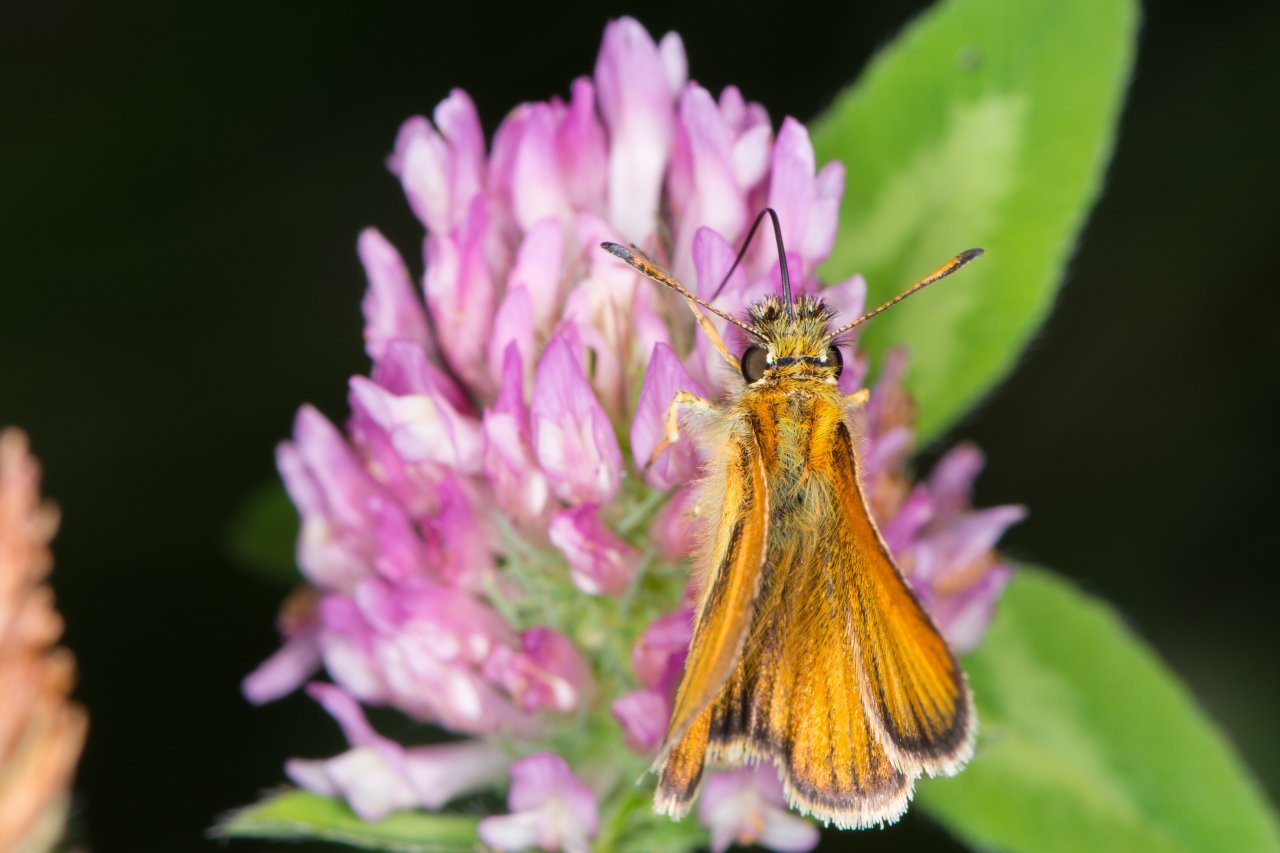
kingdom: Animalia
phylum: Arthropoda
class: Insecta
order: Lepidoptera
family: Hesperiidae
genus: Thymelicus
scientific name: Thymelicus lineola
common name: European Skipper
